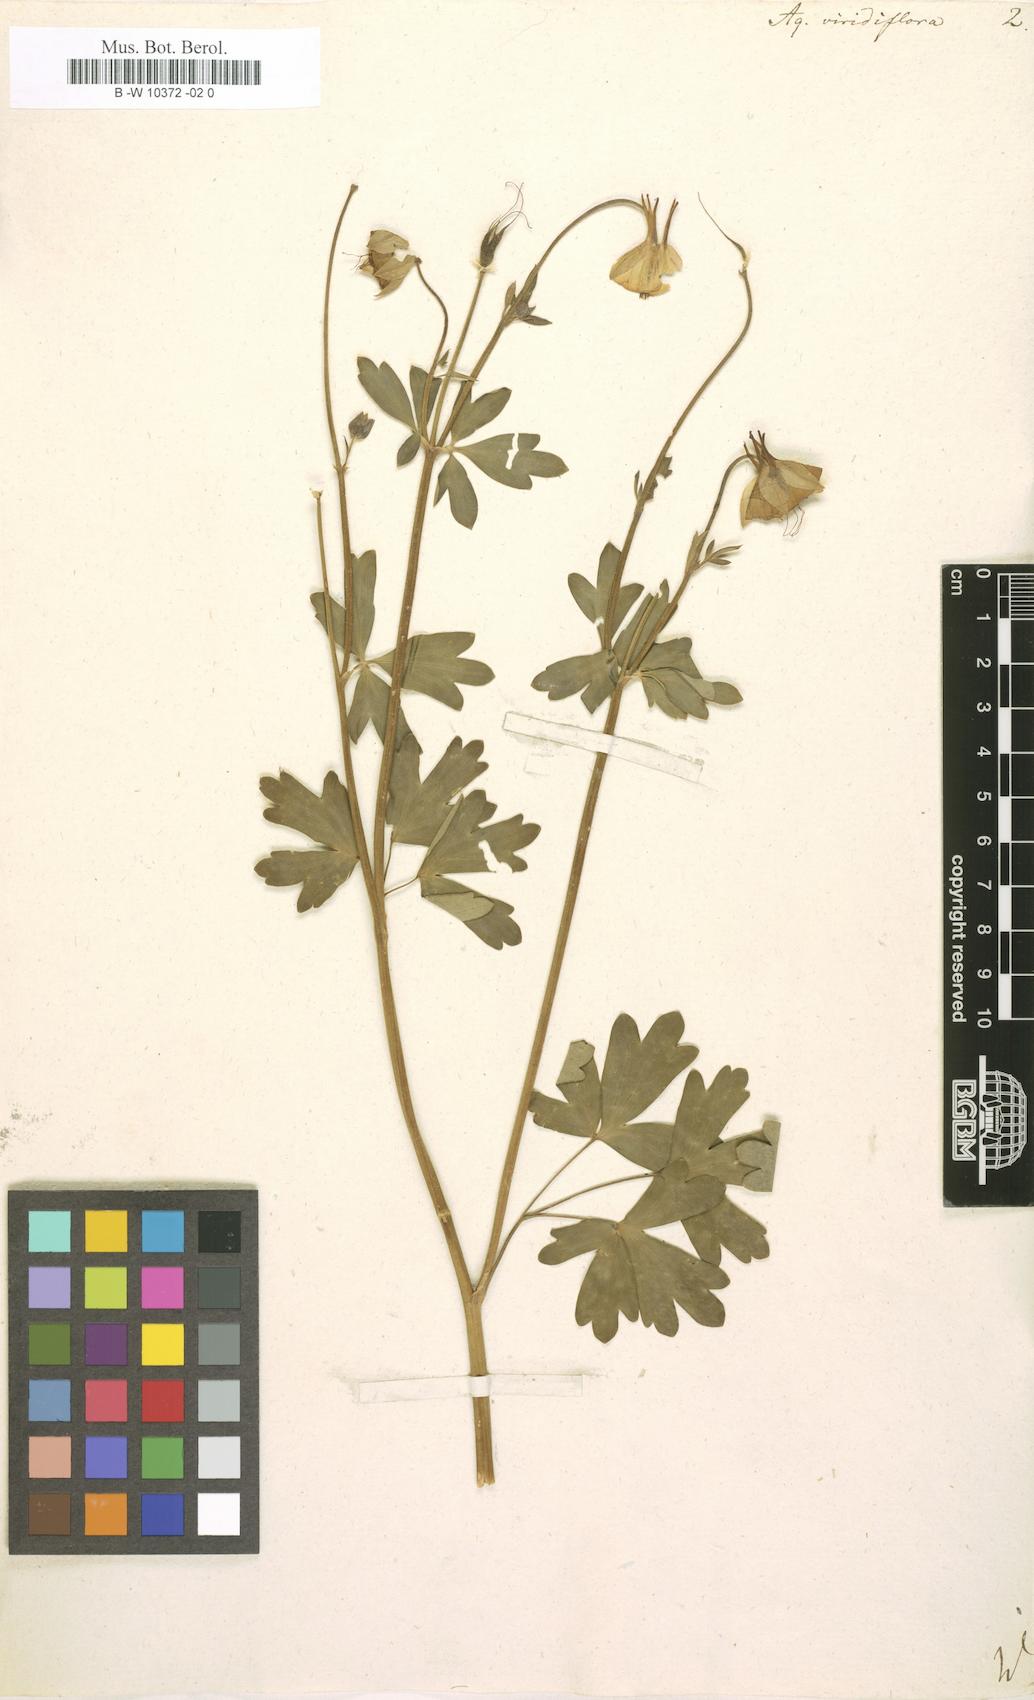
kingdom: Plantae
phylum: Tracheophyta
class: Magnoliopsida
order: Ranunculales
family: Ranunculaceae
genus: Aquilegia
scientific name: Aquilegia viridiflora
